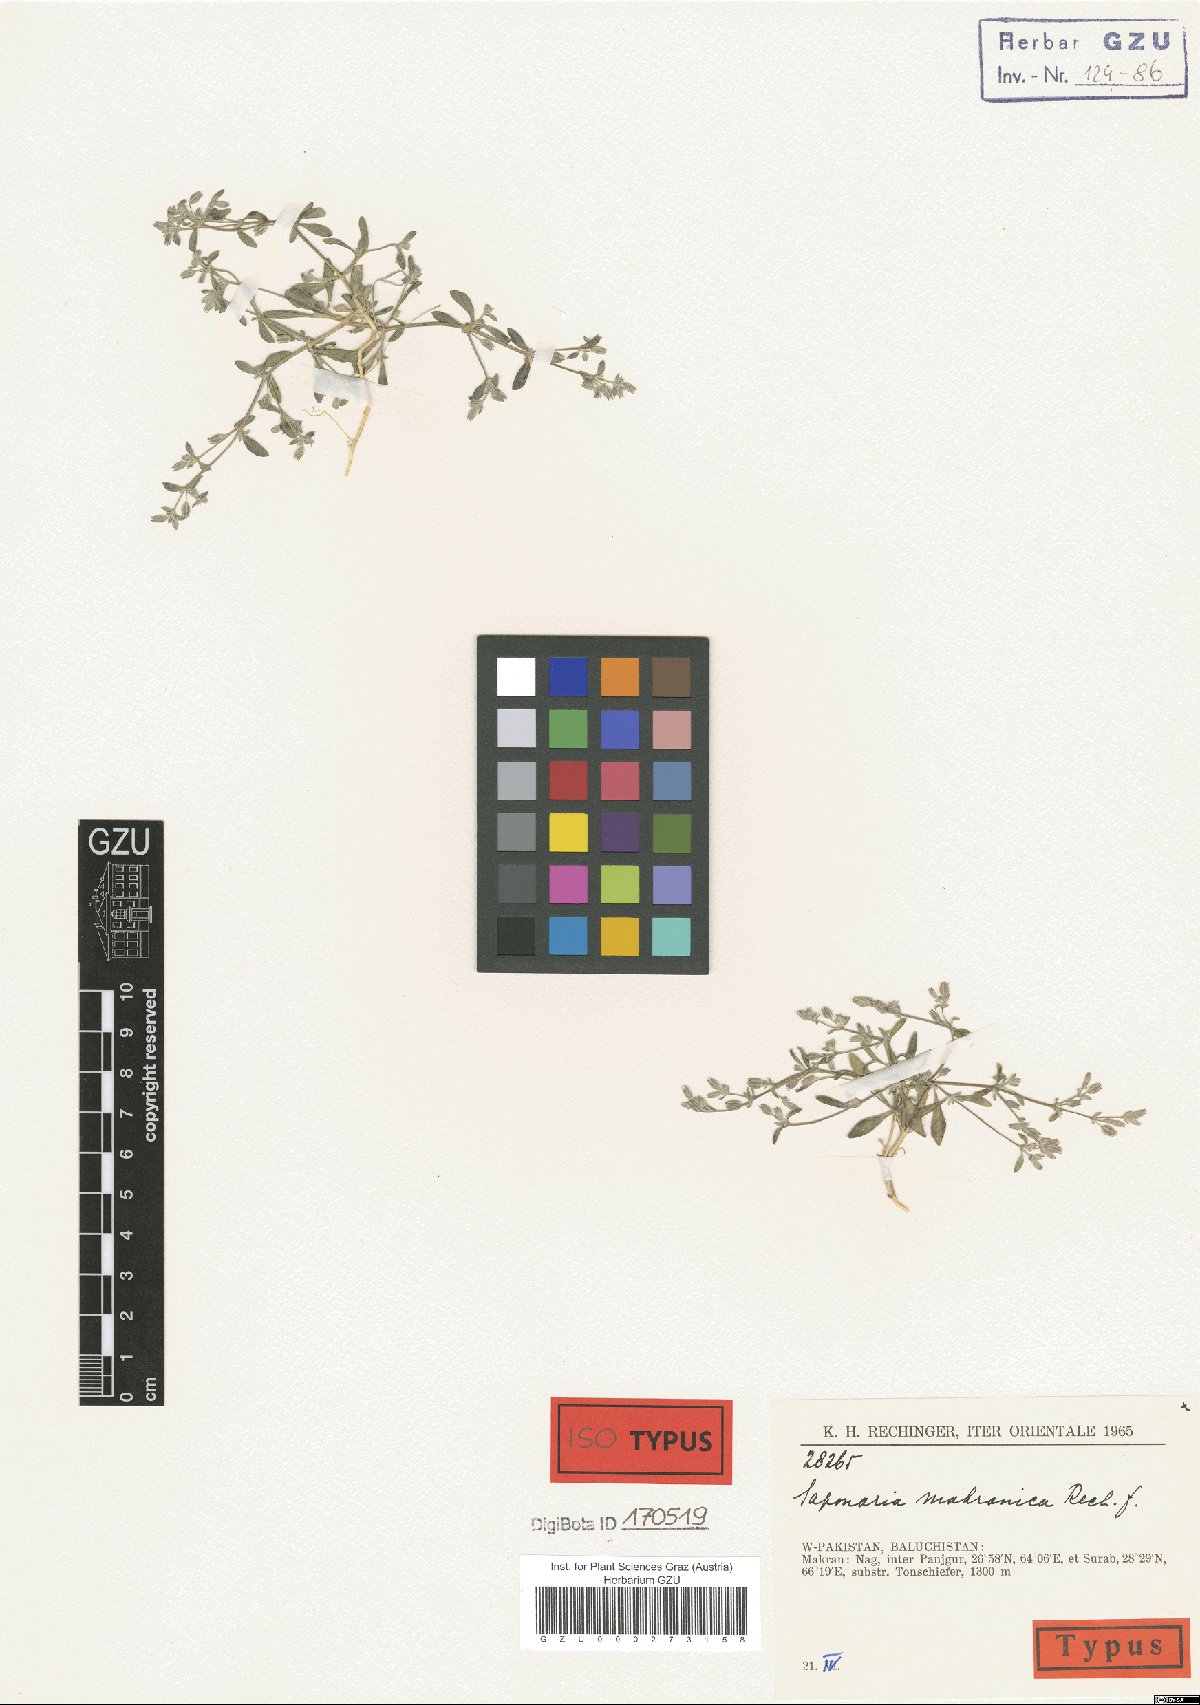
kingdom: Plantae
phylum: Tracheophyta
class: Magnoliopsida
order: Caryophyllales
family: Caryophyllaceae
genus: Acanthophyllum
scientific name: Acanthophyllum makranicum
